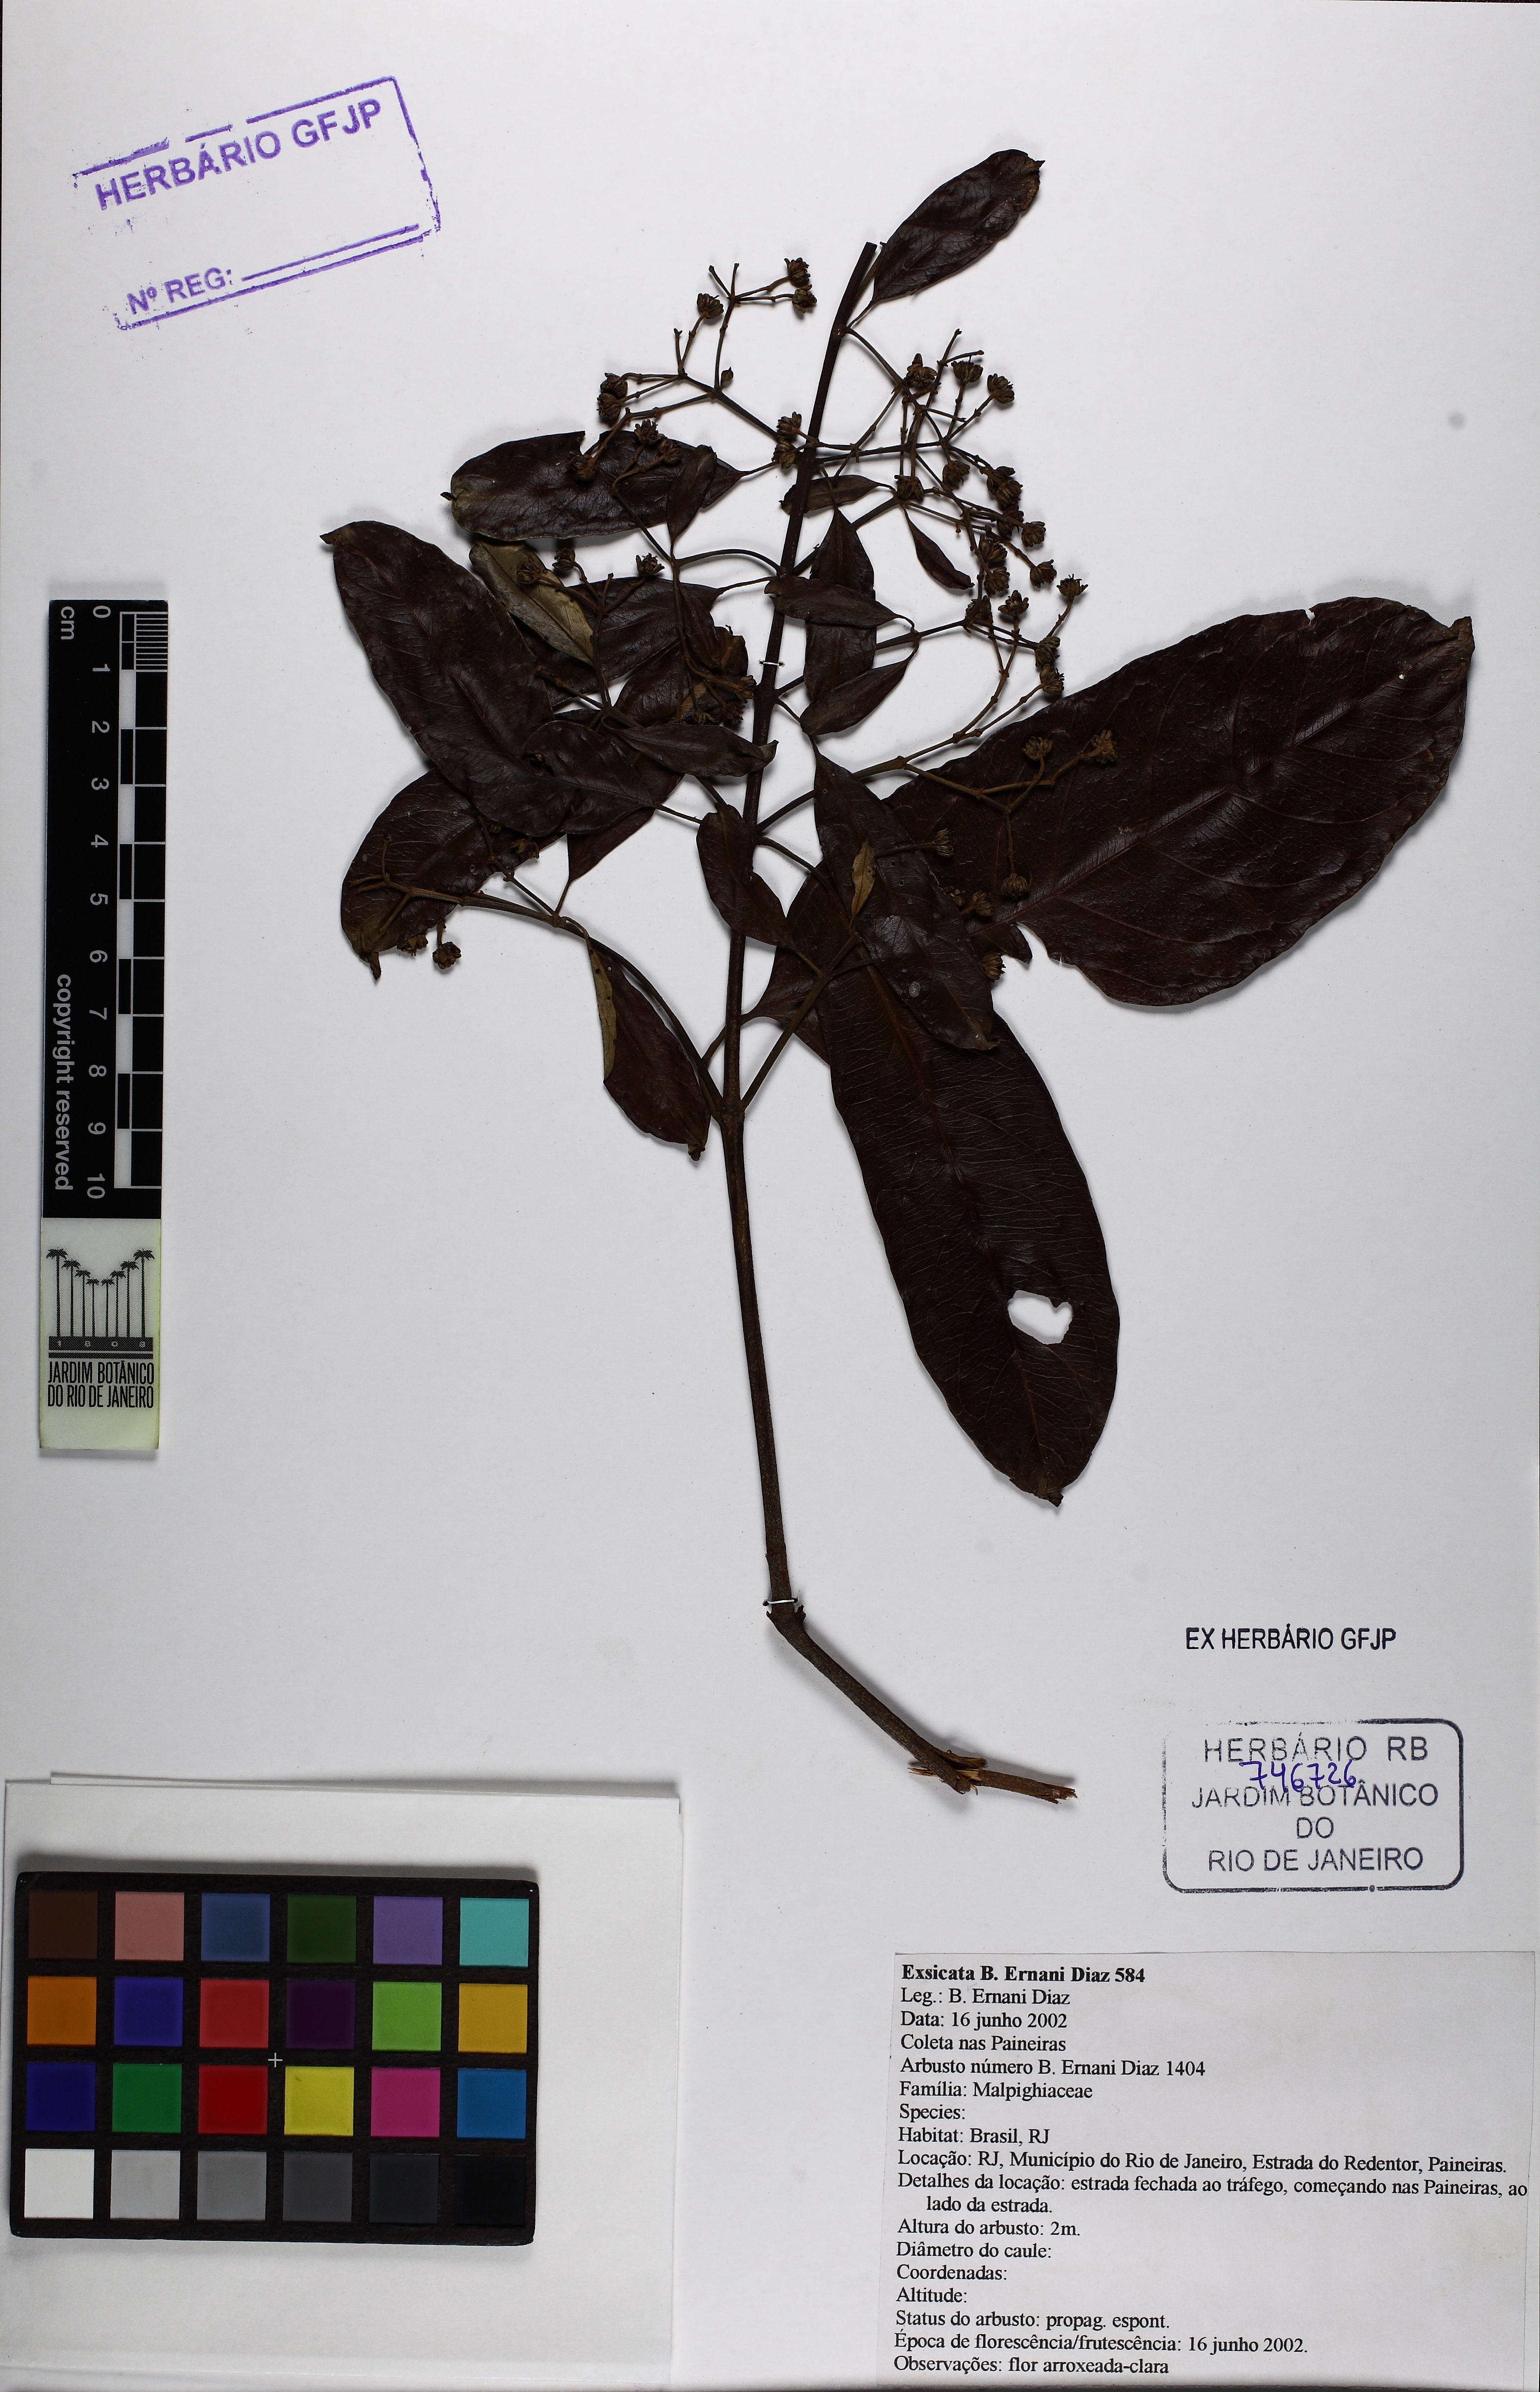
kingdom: Plantae
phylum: Tracheophyta
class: Magnoliopsida
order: Malpighiales
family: Malpighiaceae
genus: Heteropterys
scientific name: Heteropterys nitida
